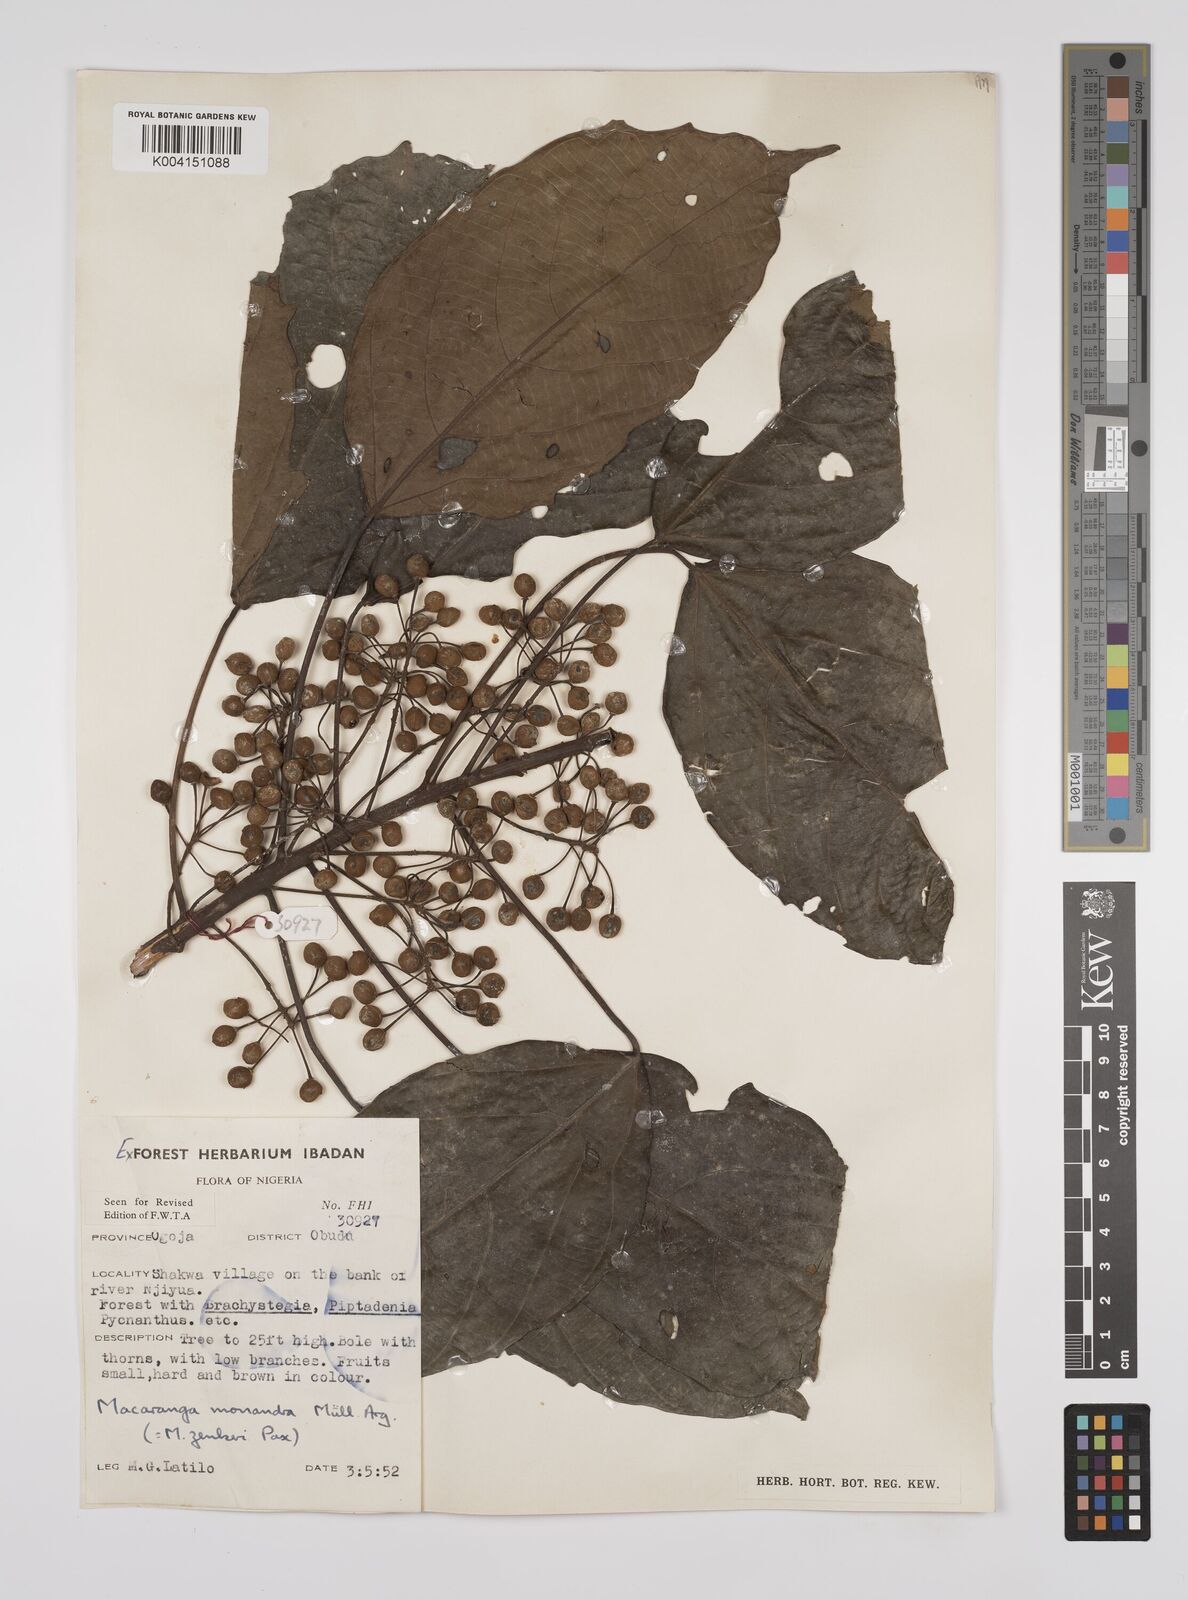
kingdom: Plantae
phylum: Tracheophyta
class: Magnoliopsida
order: Malpighiales
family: Euphorbiaceae
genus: Macaranga
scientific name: Macaranga monandra
